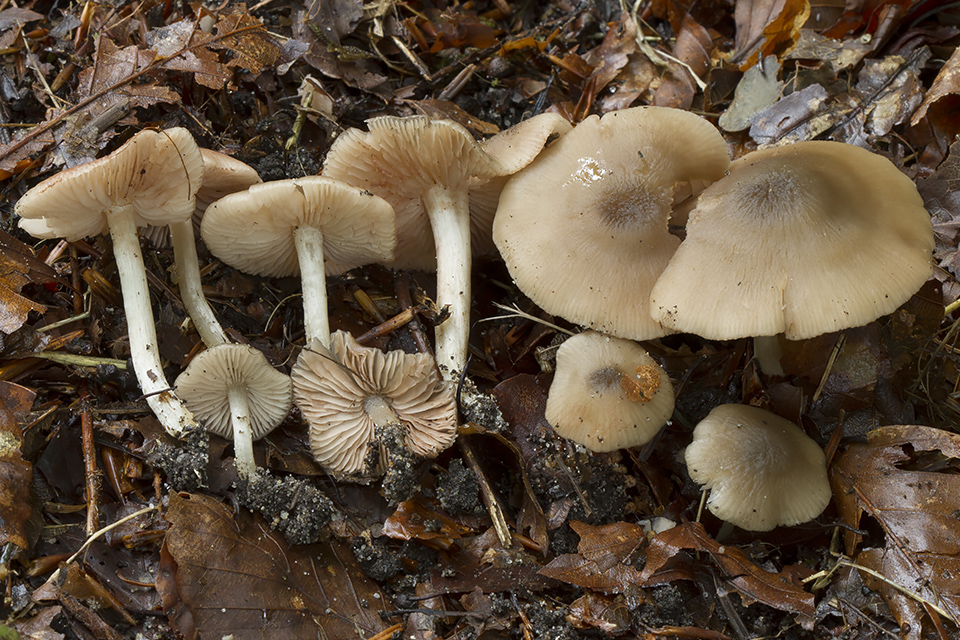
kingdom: Fungi
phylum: Basidiomycota
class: Agaricomycetes
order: Agaricales
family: Entolomataceae
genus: Entoloma
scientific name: Entoloma
